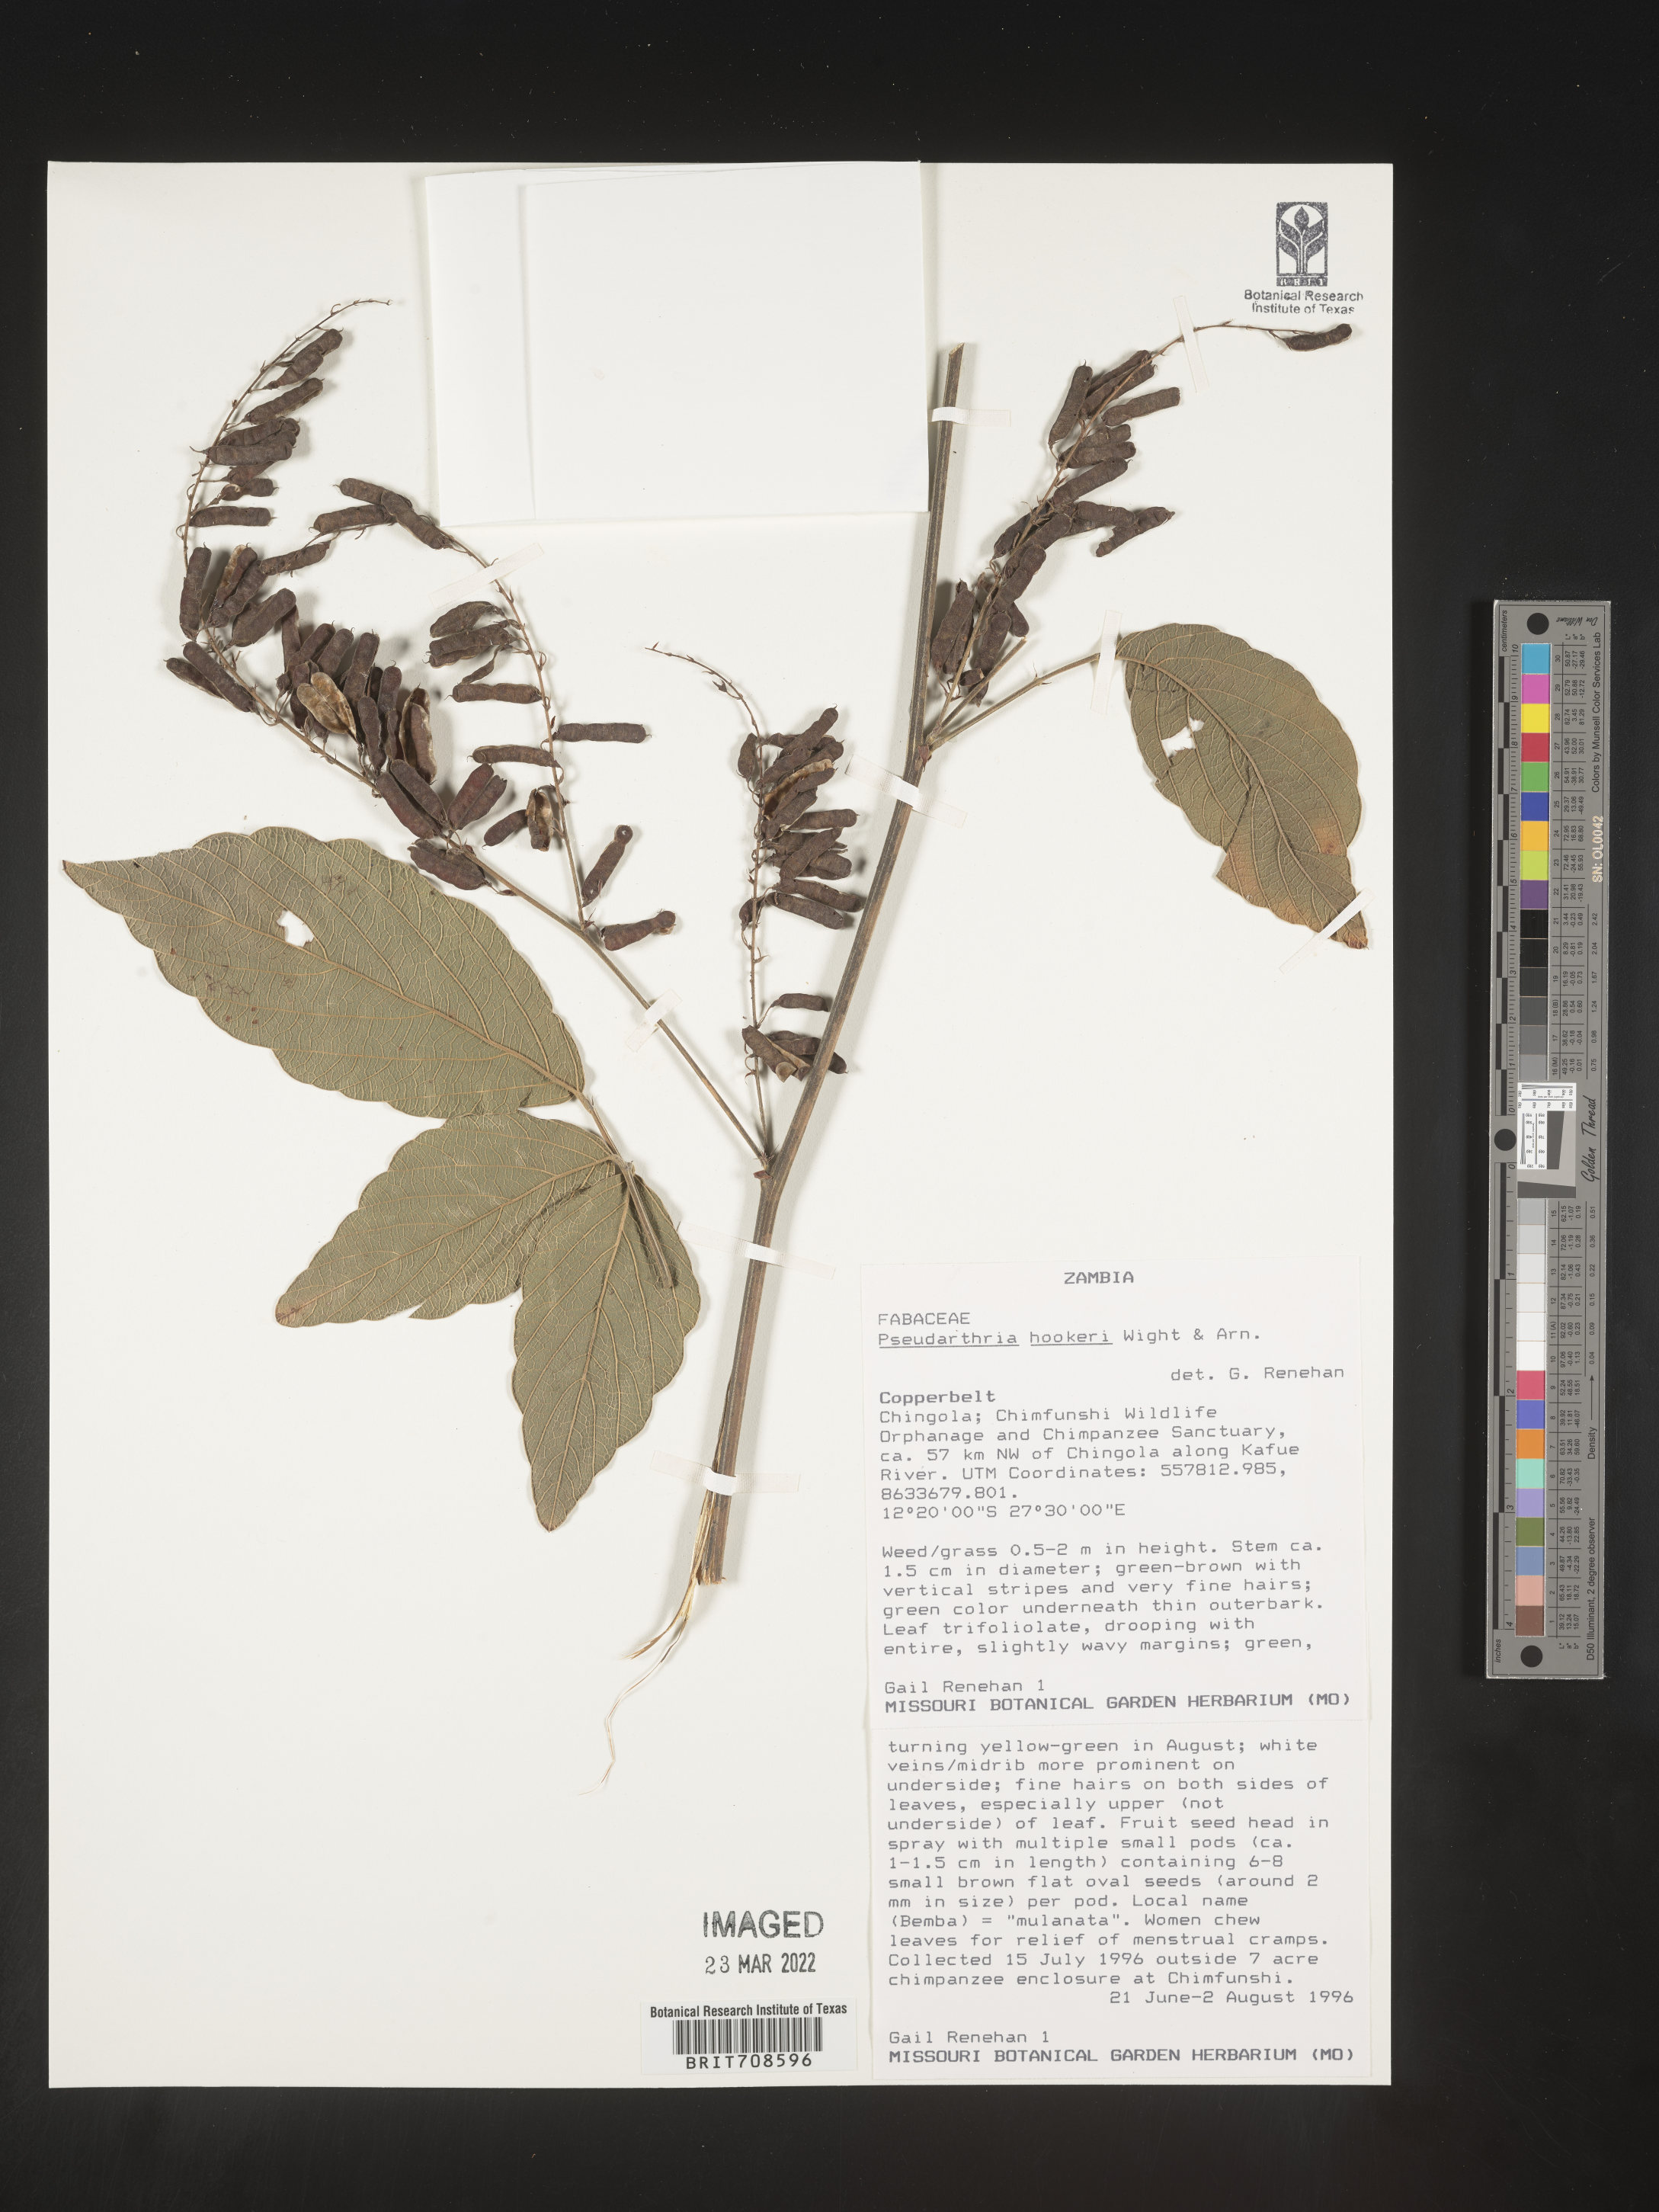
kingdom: Plantae
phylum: Tracheophyta
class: Magnoliopsida
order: Fabales
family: Fabaceae
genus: Pseudarthria
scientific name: Pseudarthria
